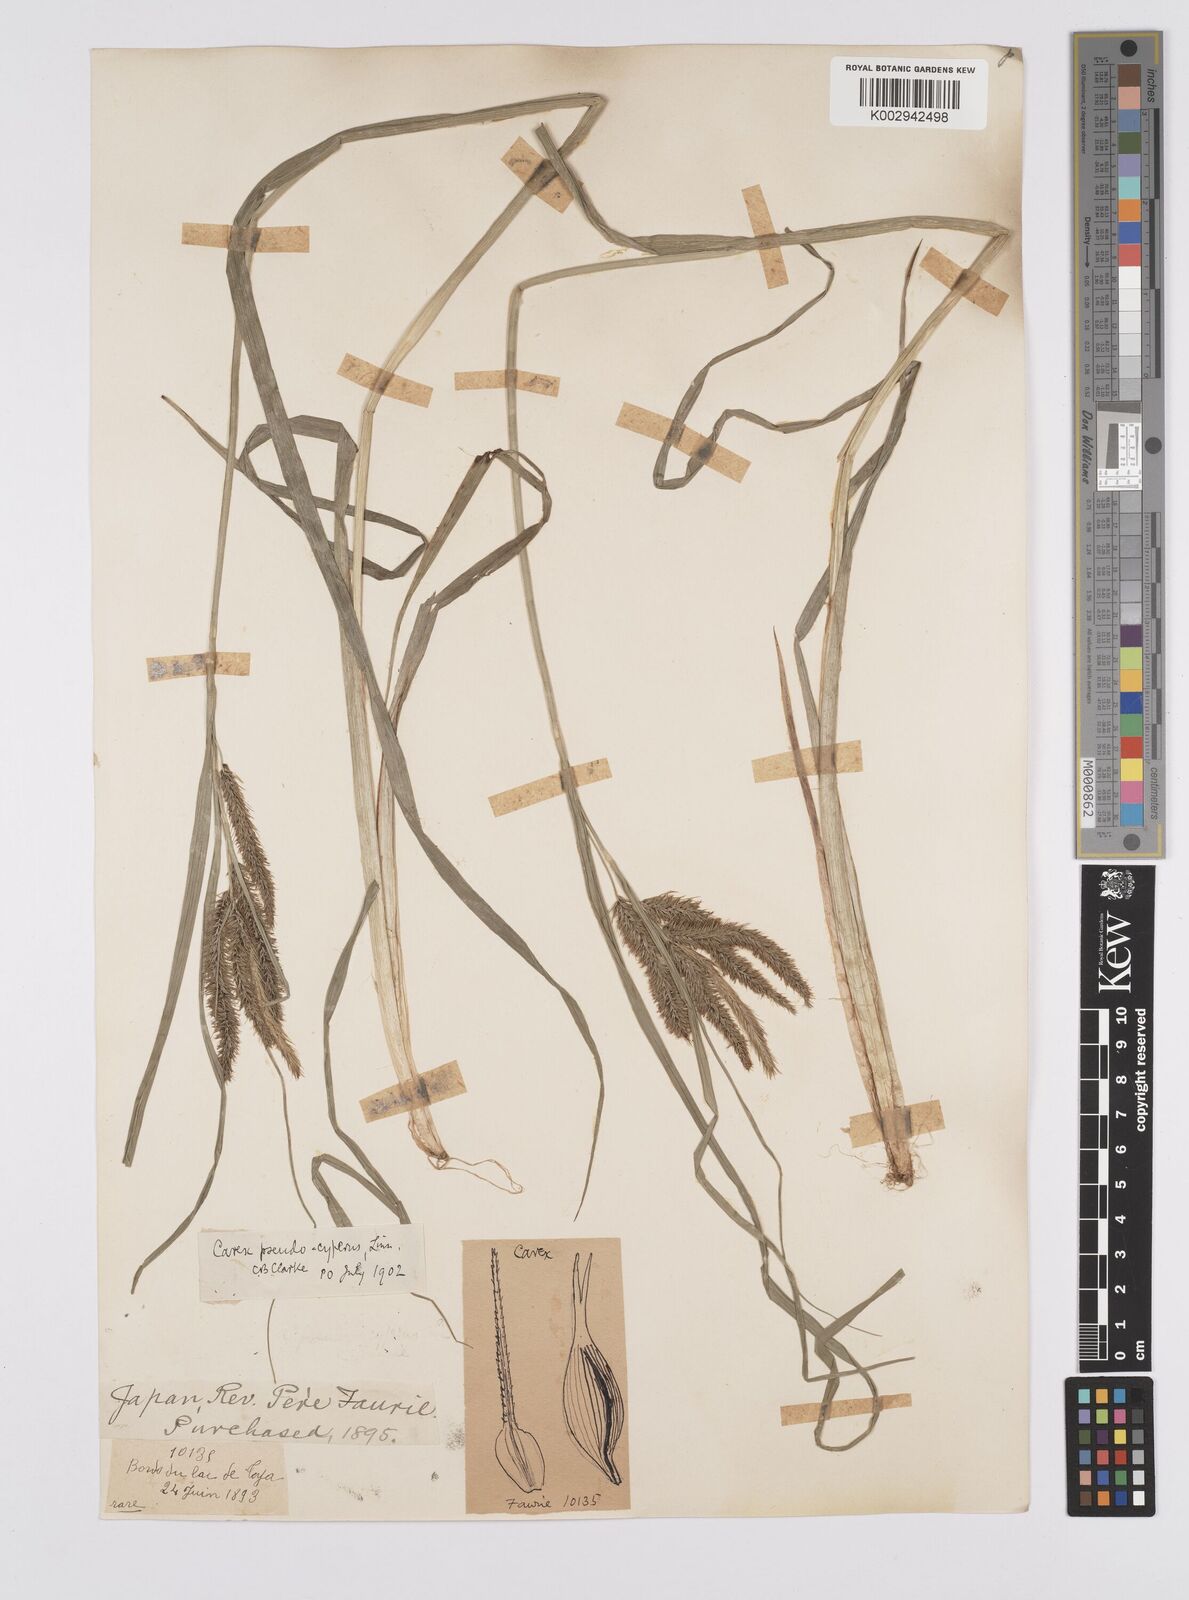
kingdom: Plantae
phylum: Tracheophyta
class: Liliopsida
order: Poales
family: Cyperaceae
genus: Carex
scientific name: Carex pseudocyperus
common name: Cyperus sedge
